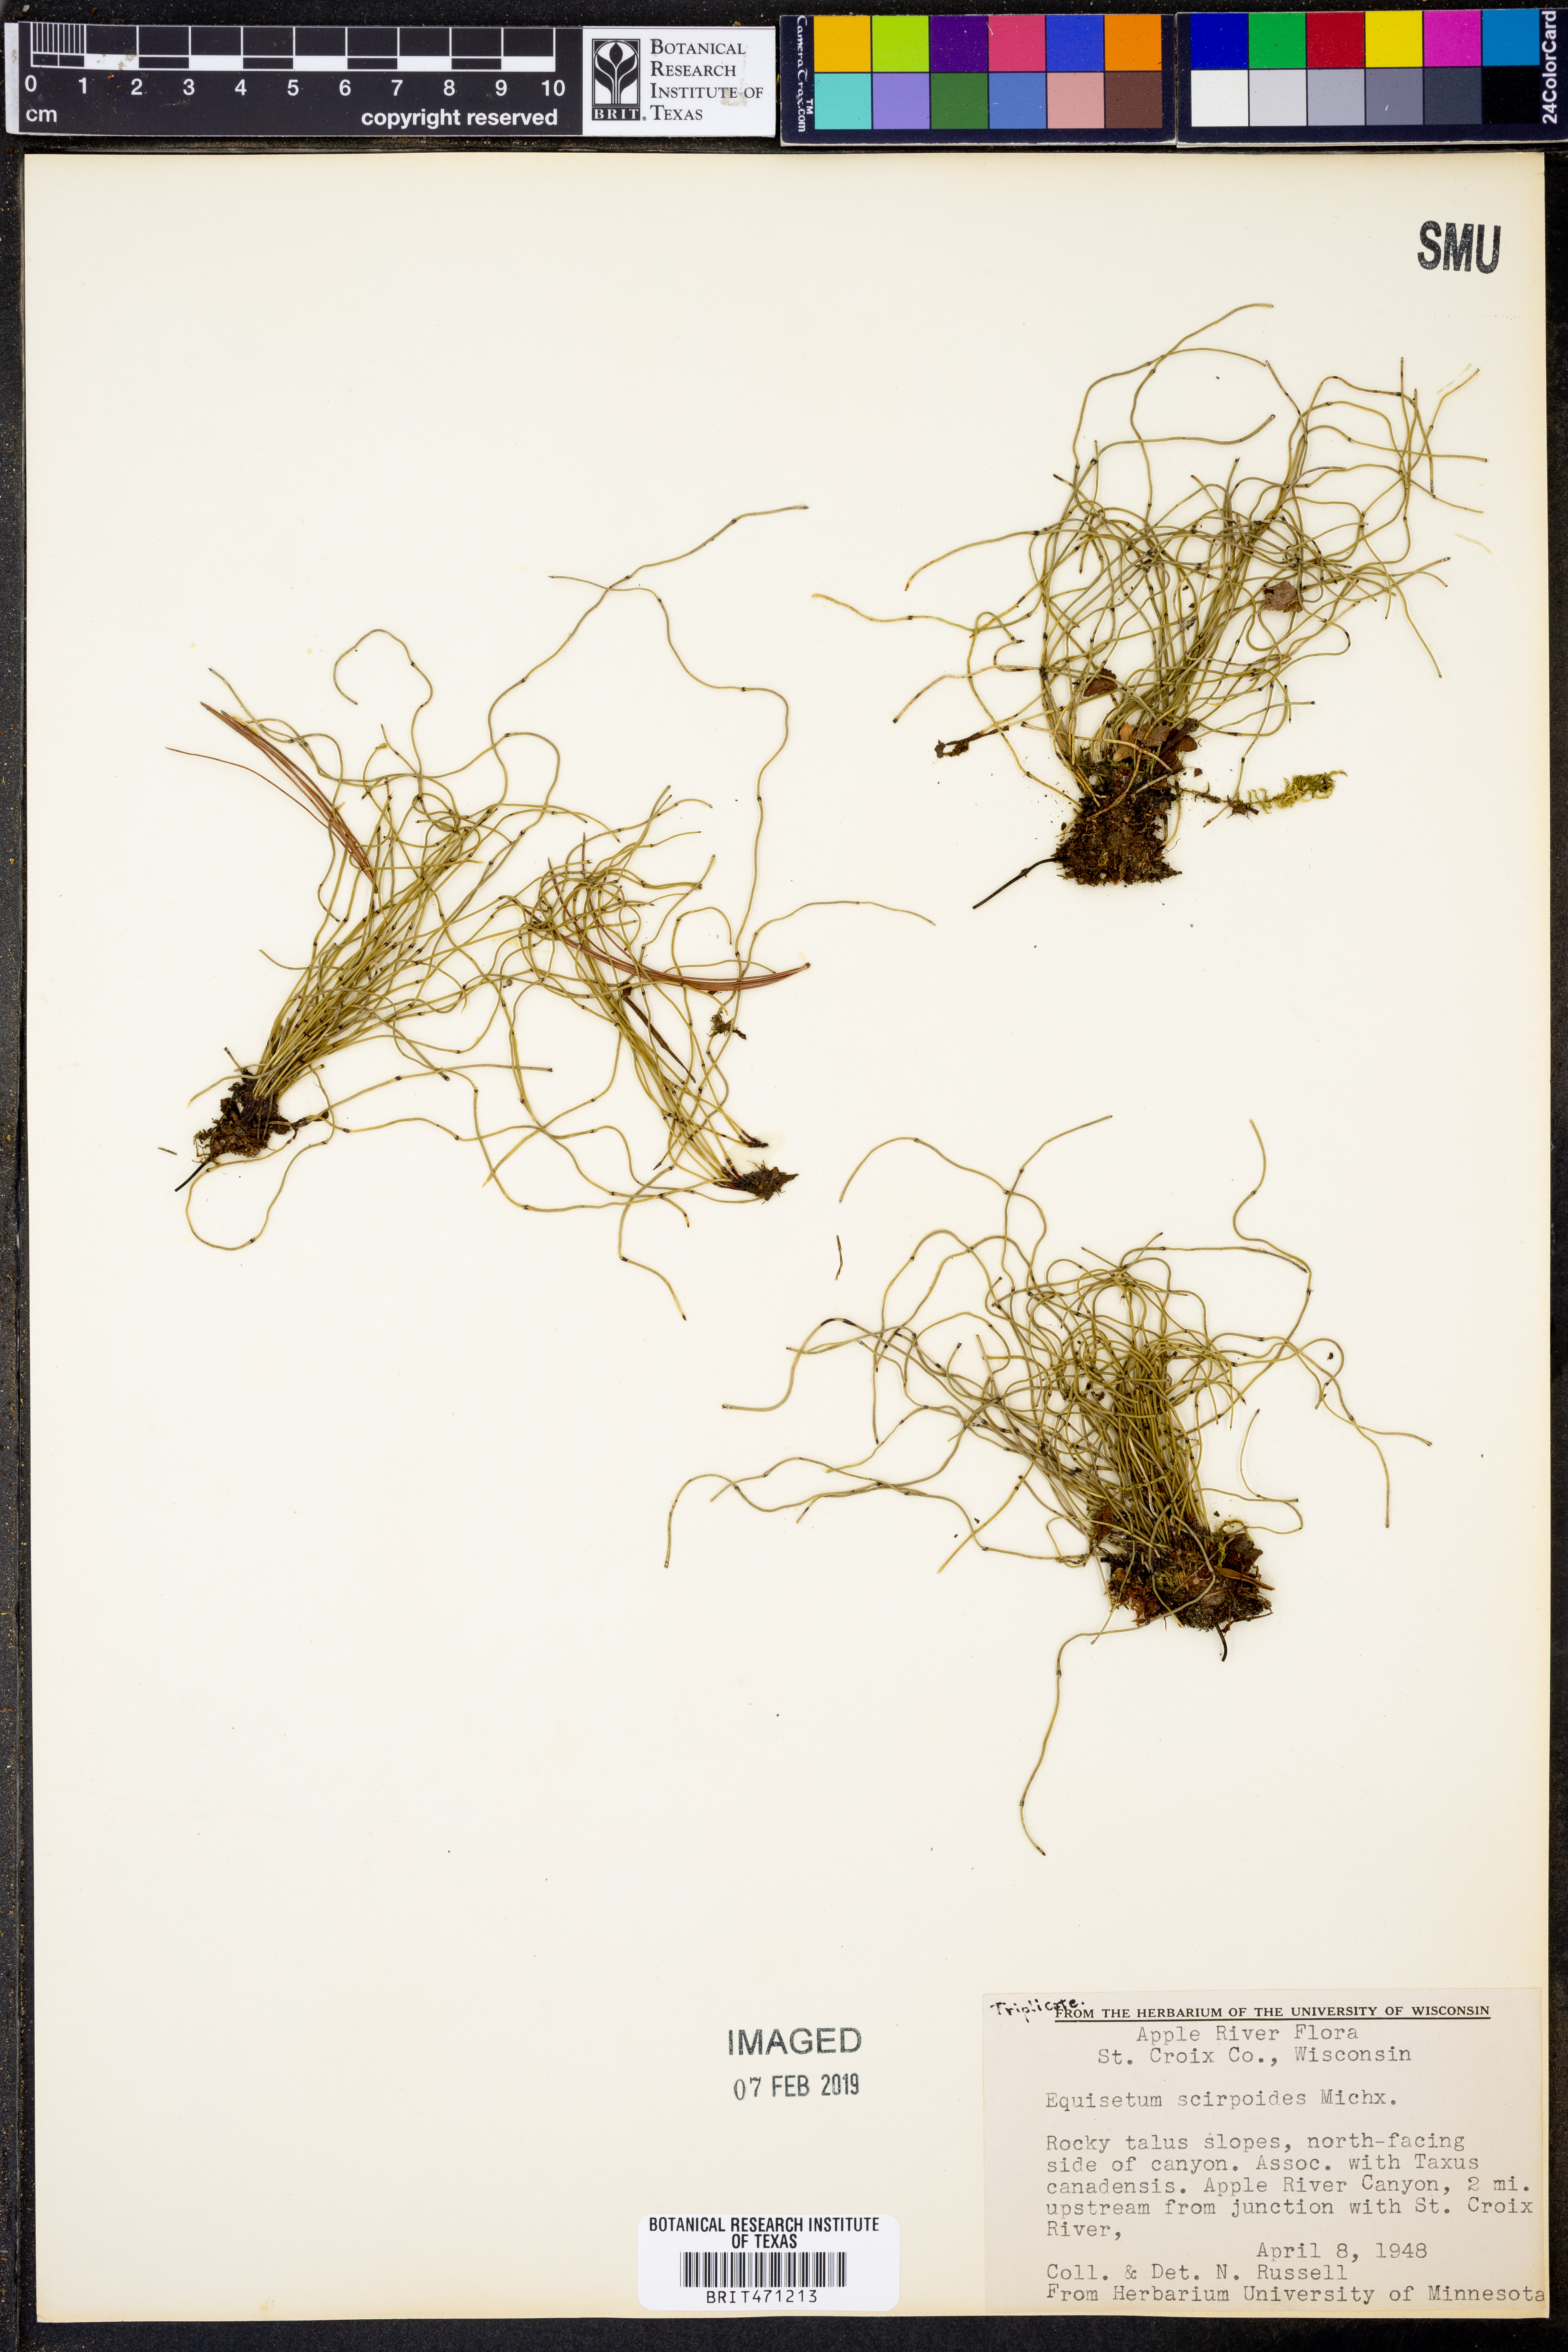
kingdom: Plantae
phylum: Tracheophyta
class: Polypodiopsida
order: Equisetales
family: Equisetaceae
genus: Equisetum
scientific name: Equisetum scirpoides
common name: Delicate horsetail
